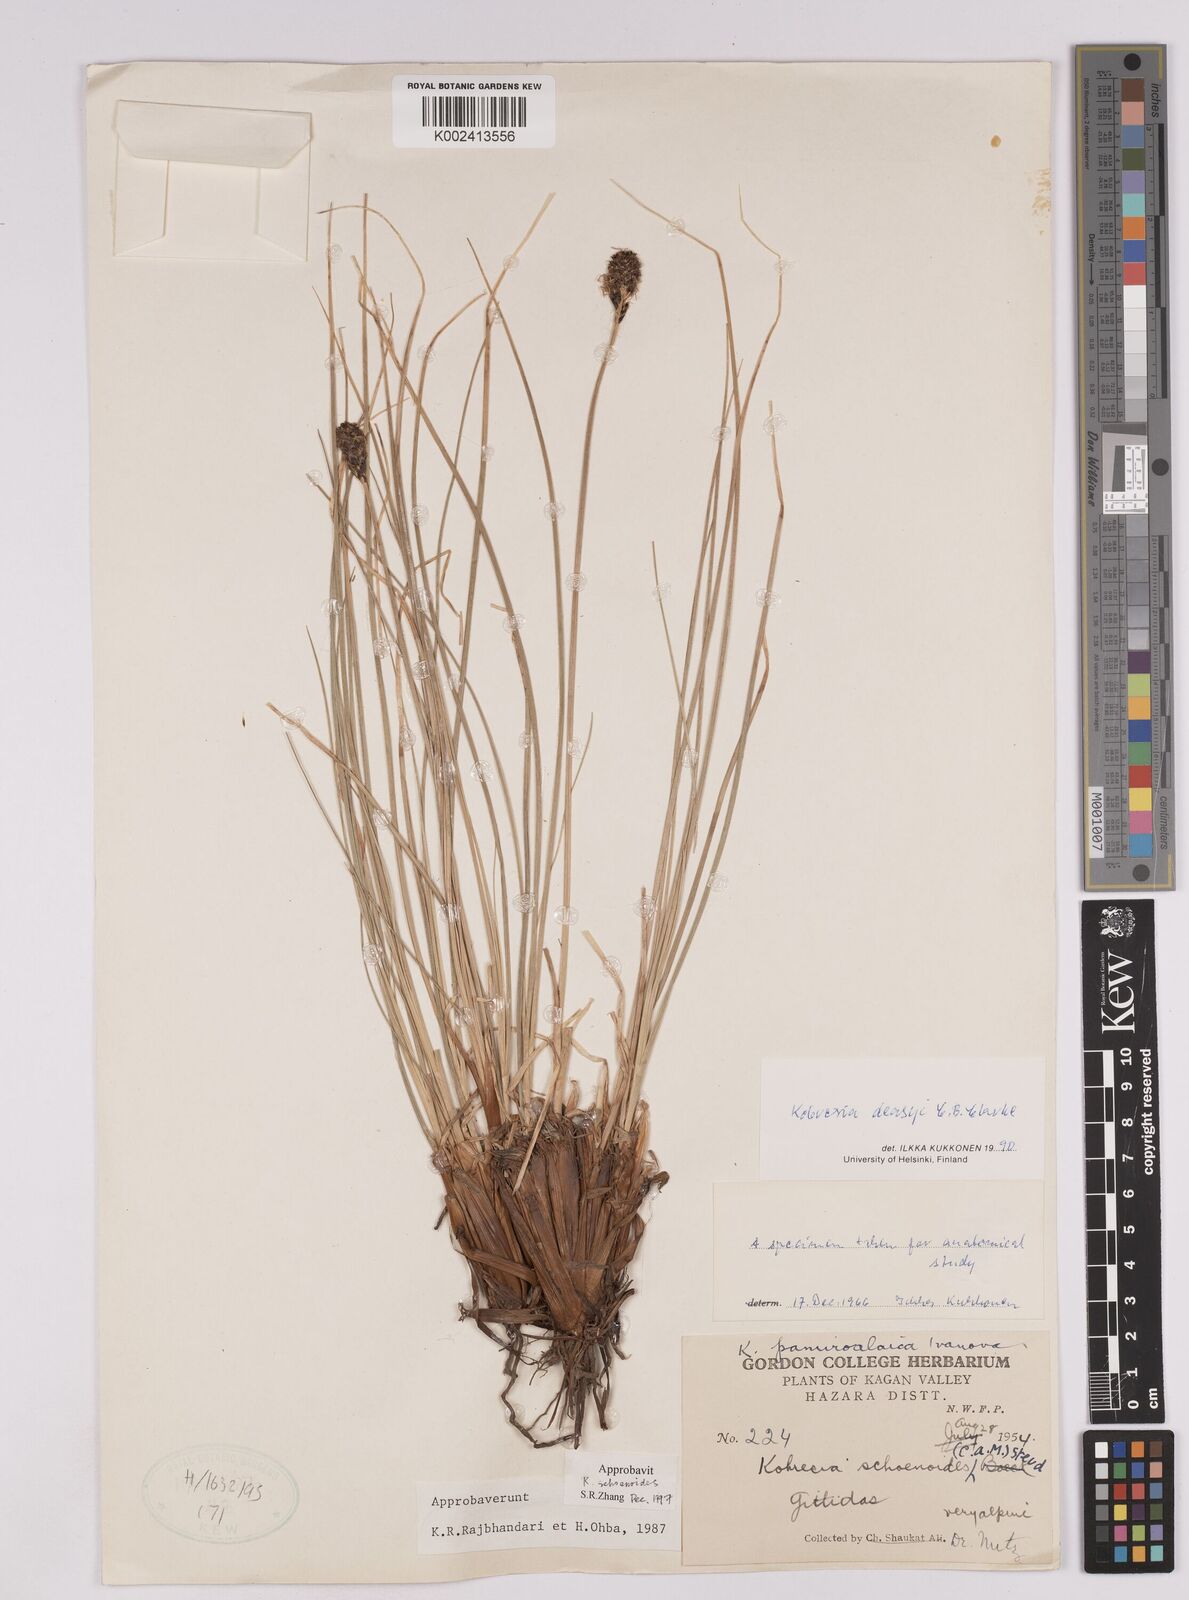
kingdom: Plantae
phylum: Tracheophyta
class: Liliopsida
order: Poales
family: Cyperaceae
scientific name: Cyperaceae
